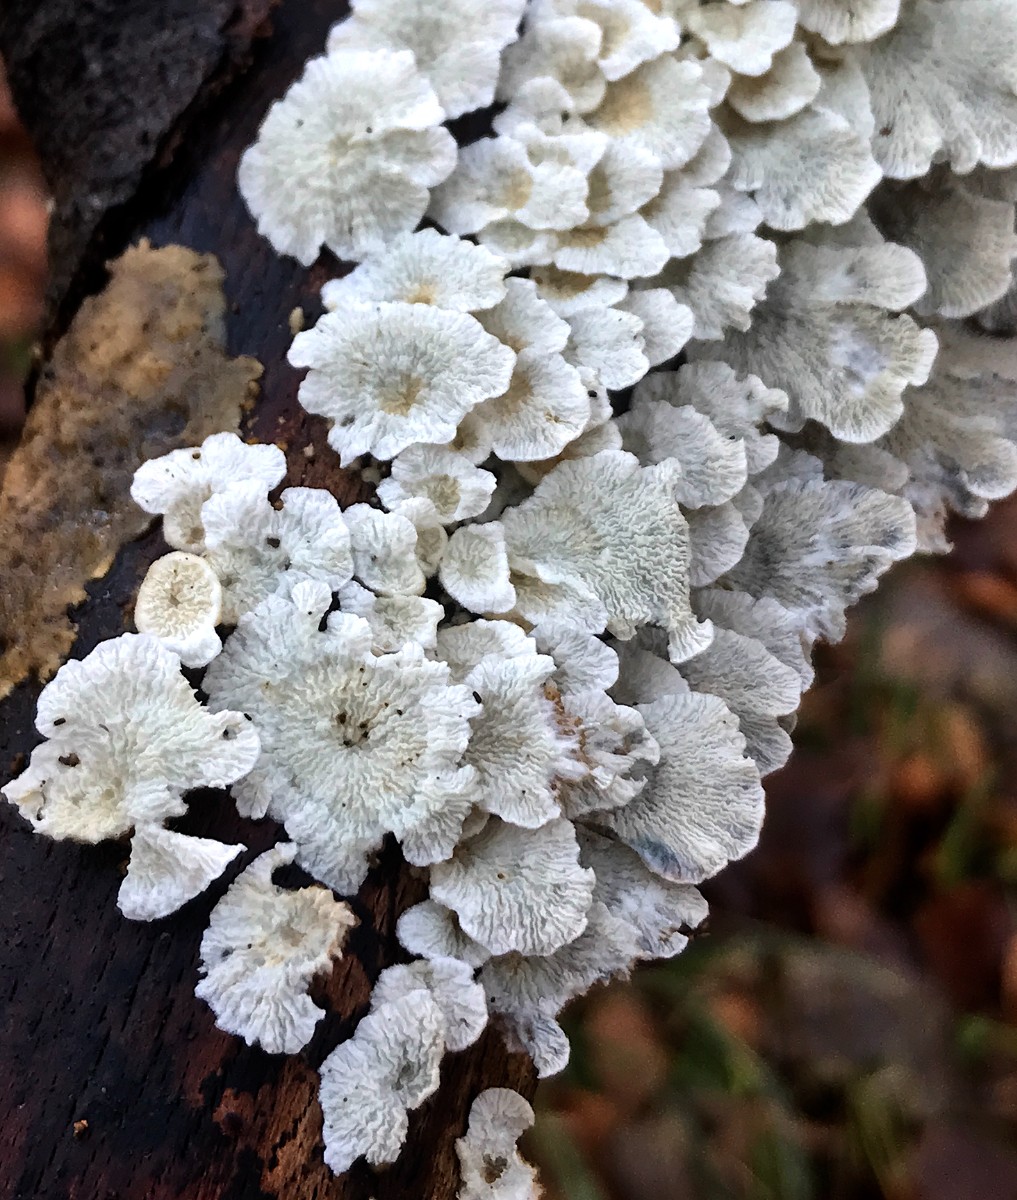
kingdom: Fungi
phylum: Basidiomycota
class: Agaricomycetes
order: Amylocorticiales
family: Amylocorticiaceae
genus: Plicaturopsis
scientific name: Plicaturopsis crispa
